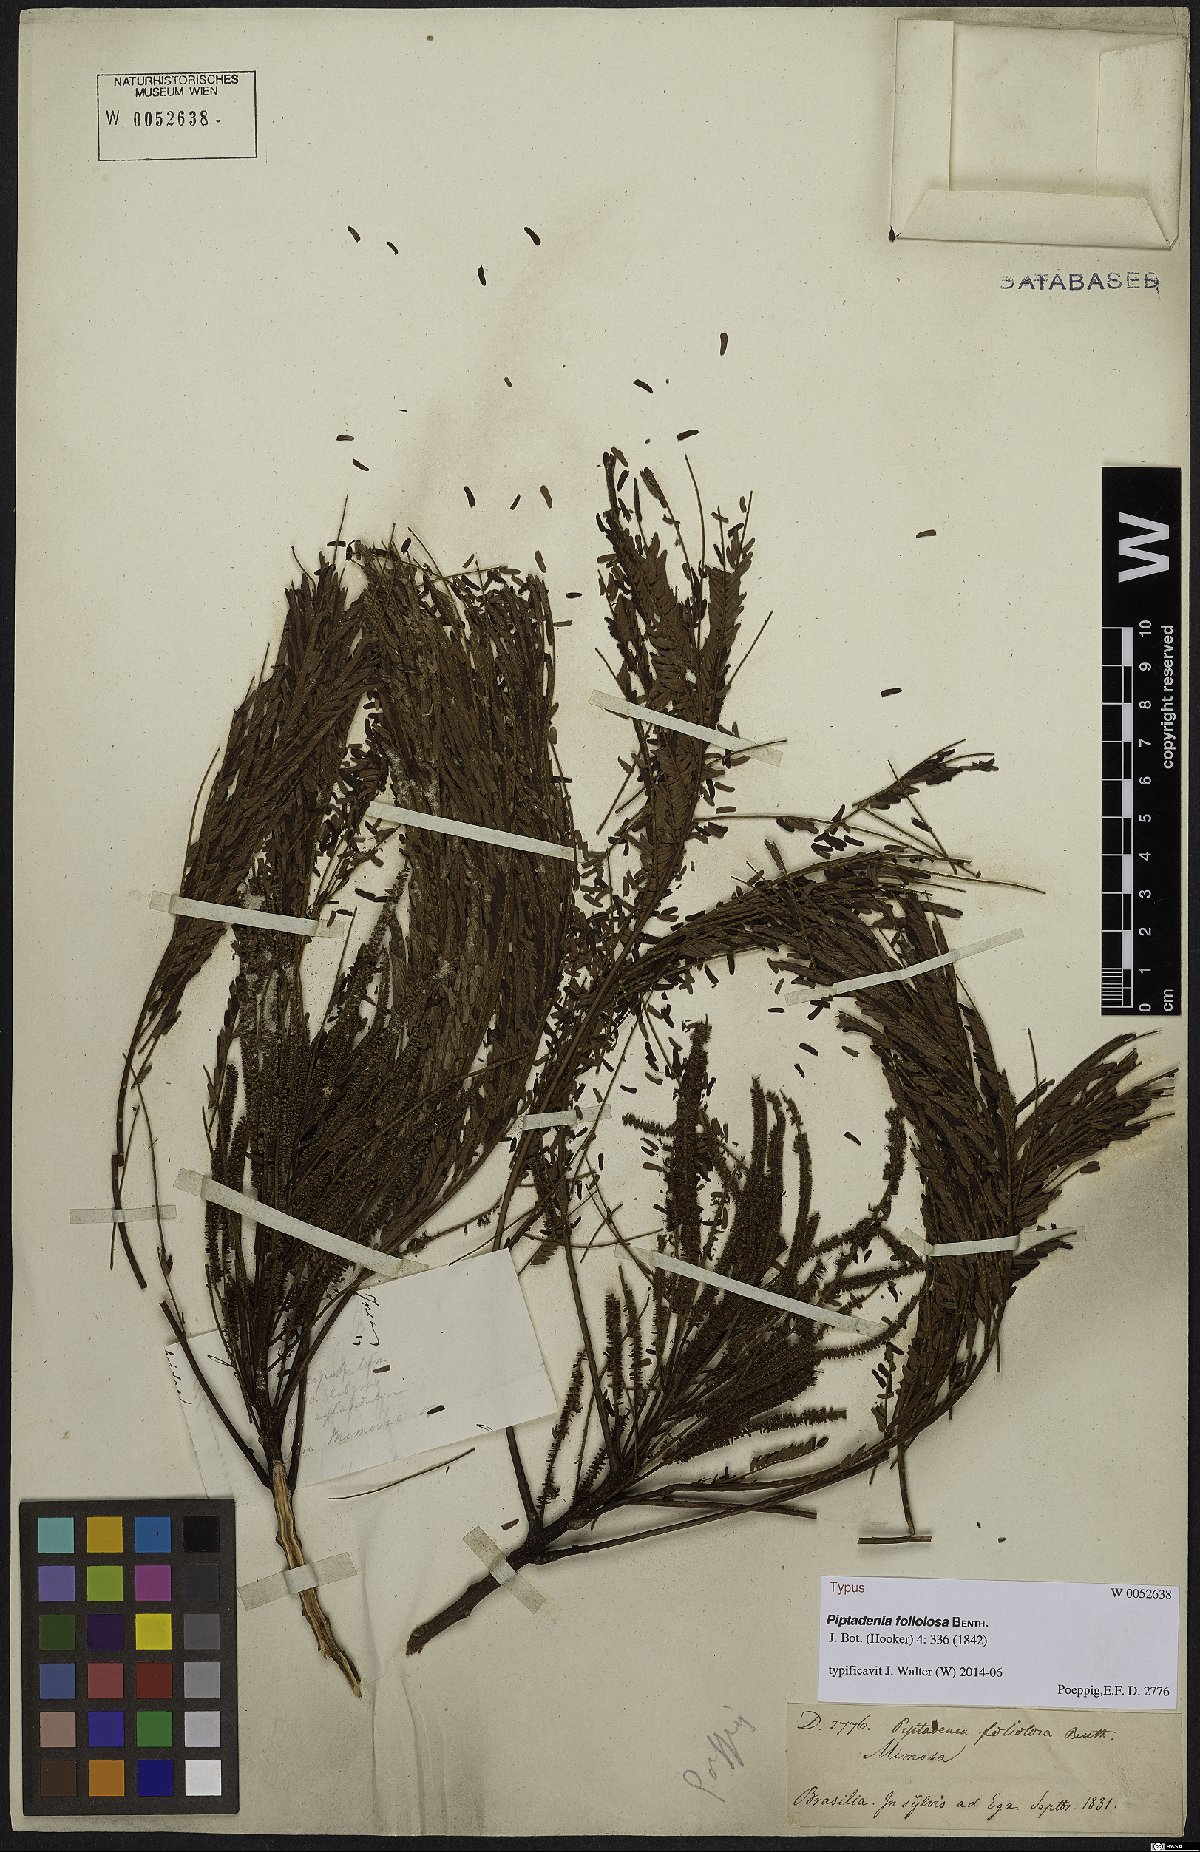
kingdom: Plantae
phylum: Tracheophyta
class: Magnoliopsida
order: Fabales
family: Fabaceae
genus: Stryphnodendron
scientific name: Stryphnodendron pulcherrimum
